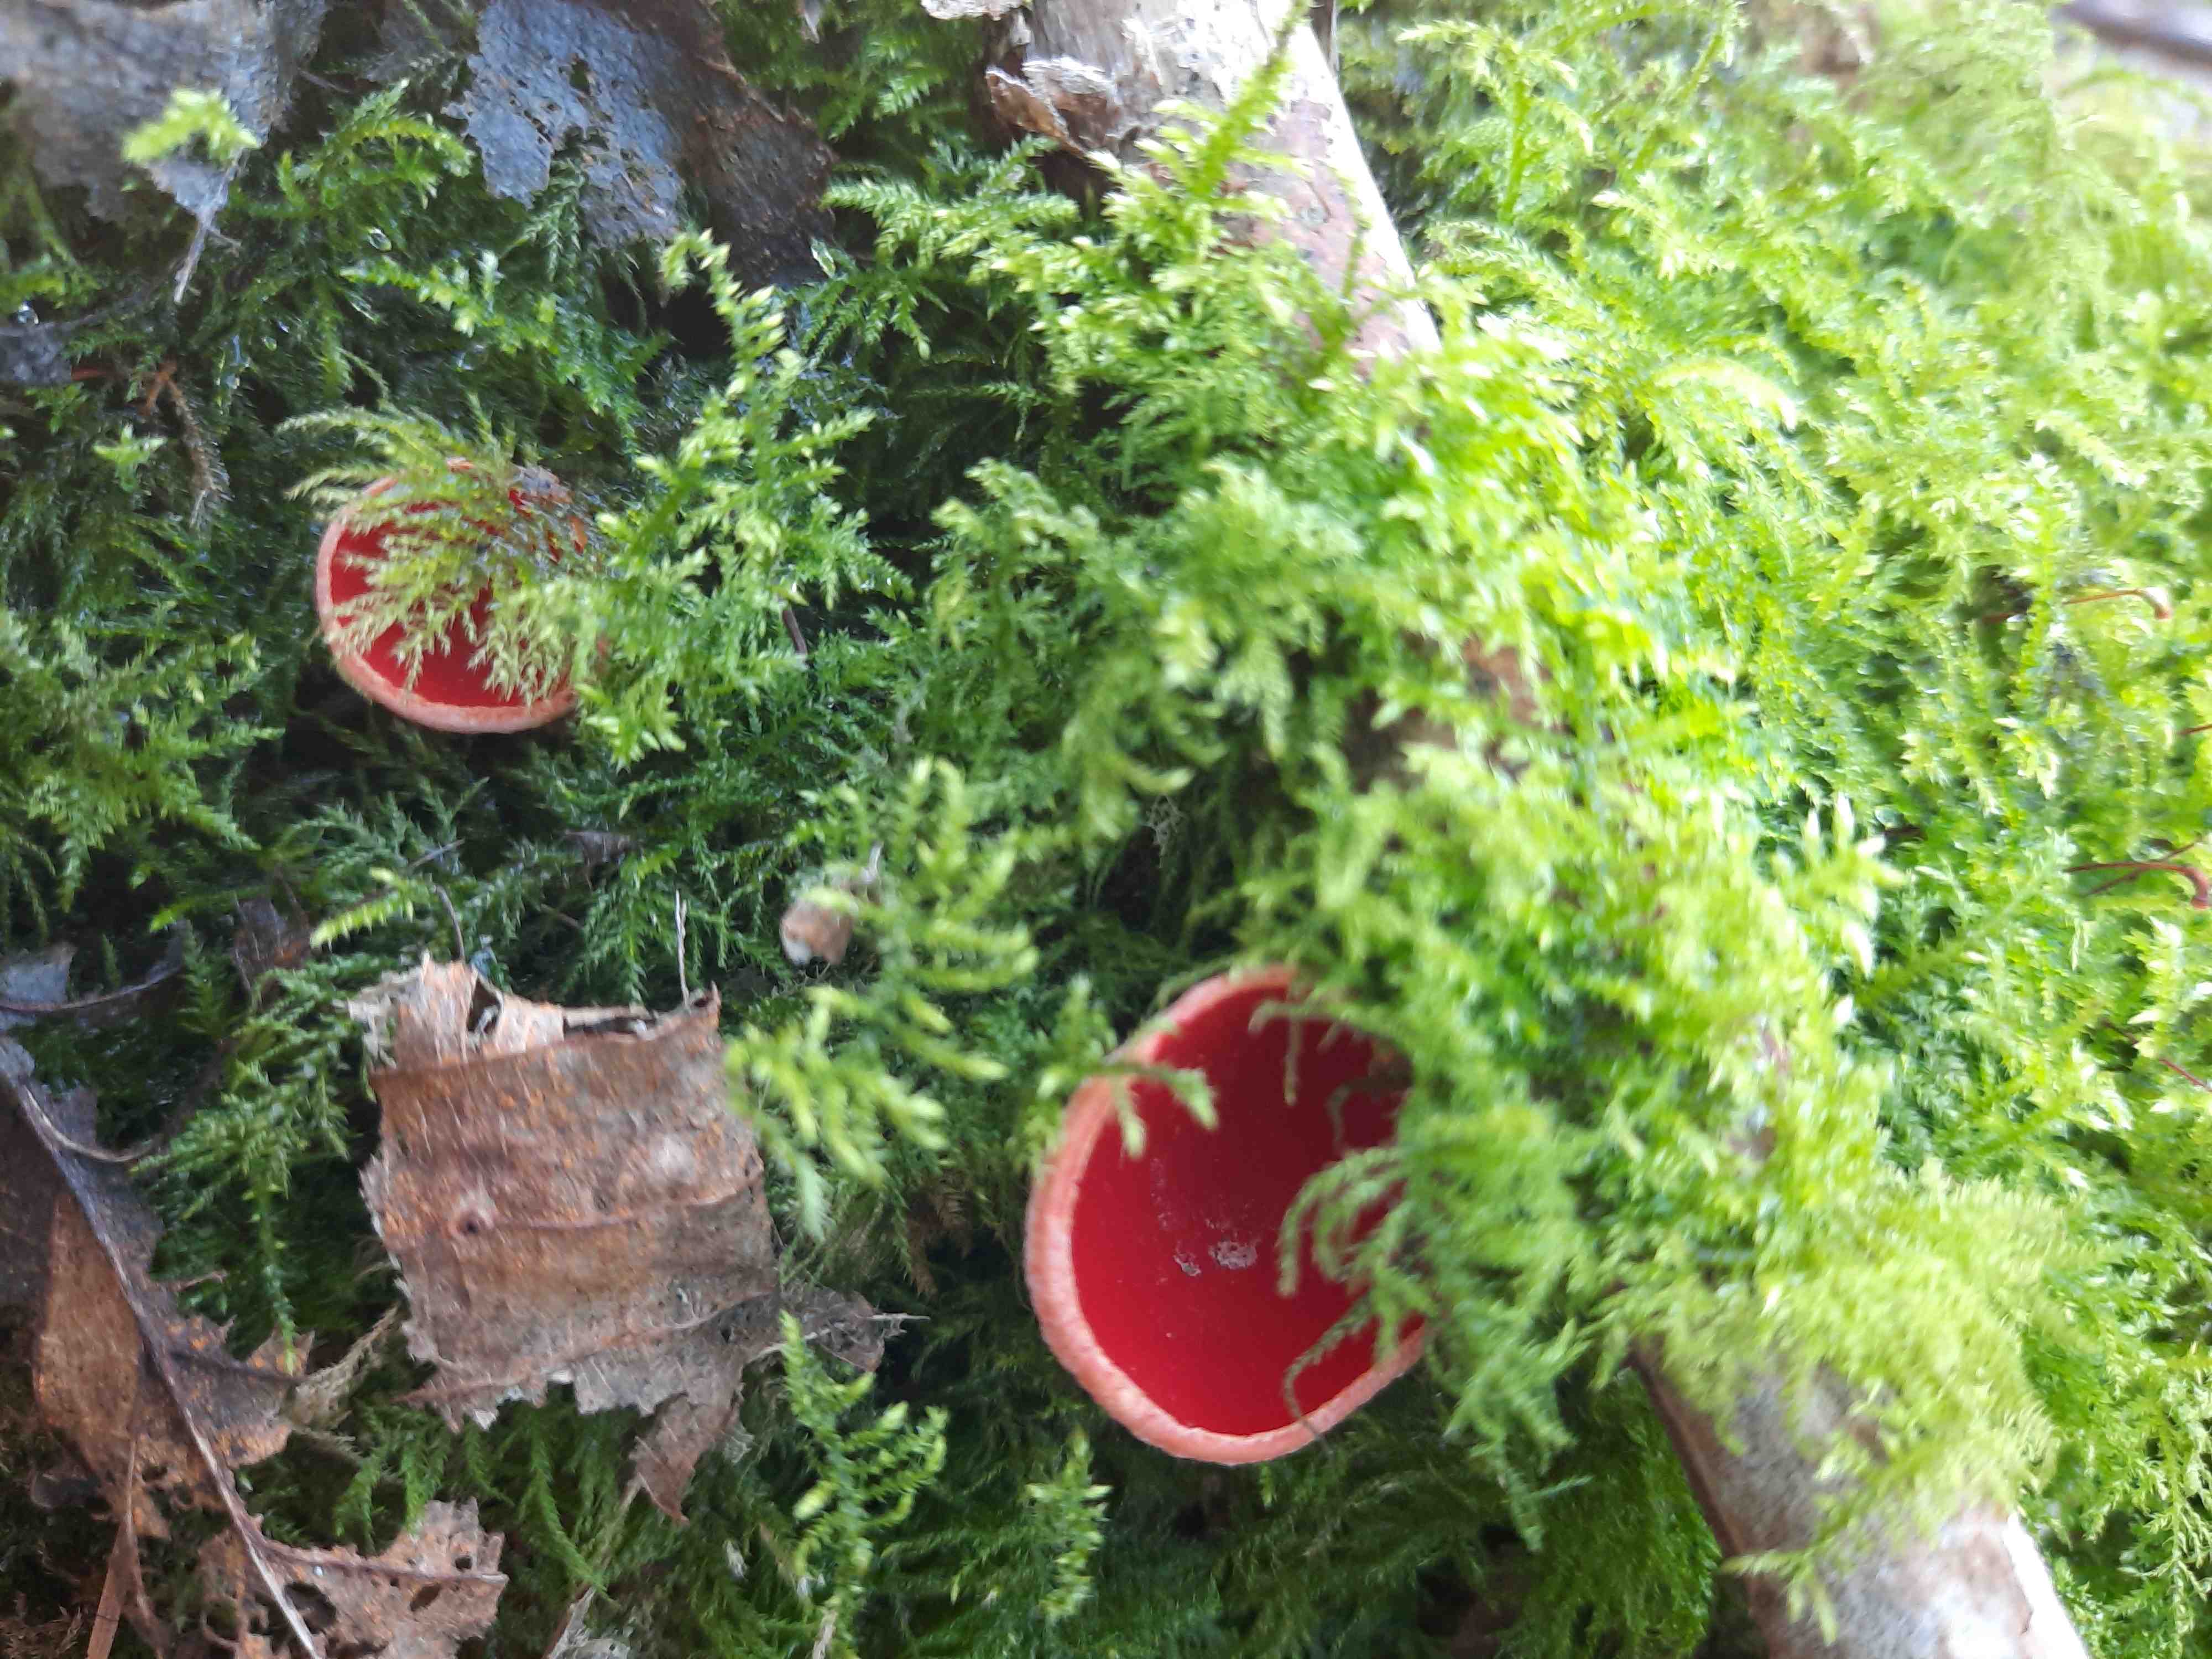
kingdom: Fungi
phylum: Ascomycota
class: Pezizomycetes
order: Pezizales
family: Sarcoscyphaceae
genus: Sarcoscypha
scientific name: Sarcoscypha austriaca
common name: krølhåret pragtbæger
